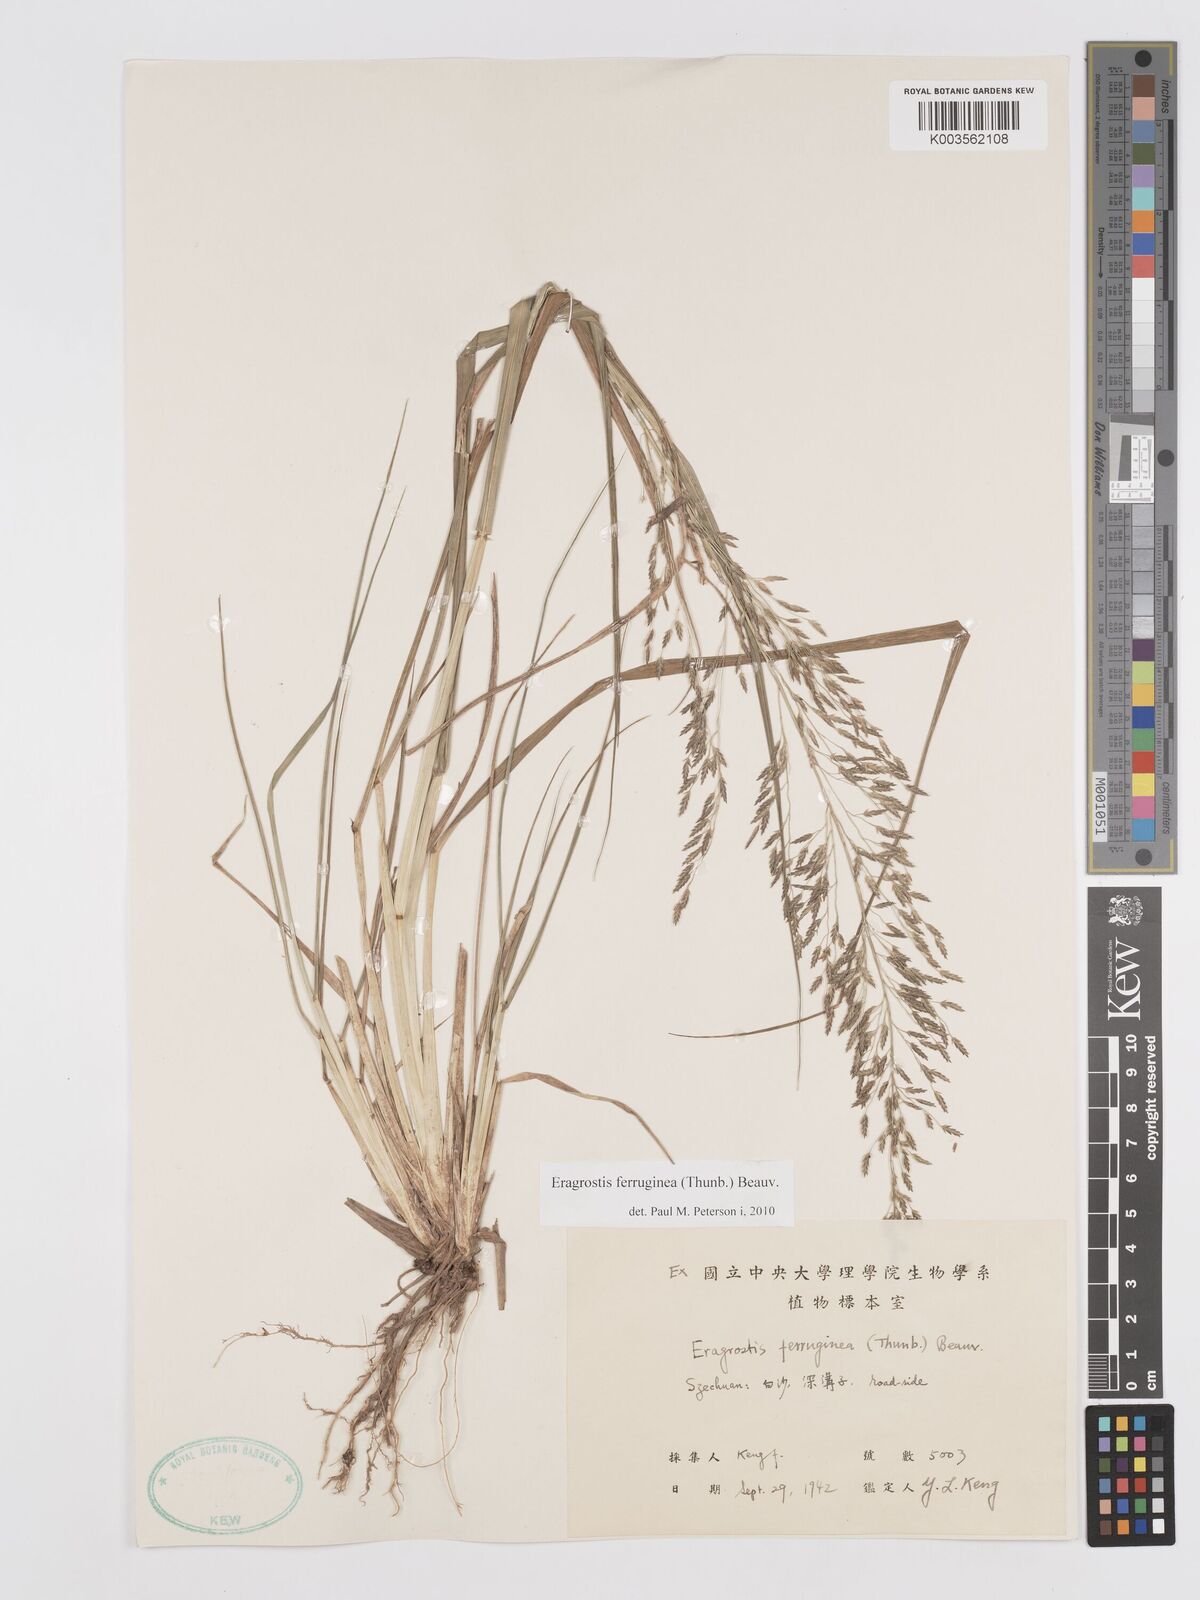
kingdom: Plantae
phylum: Tracheophyta
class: Liliopsida
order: Poales
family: Poaceae
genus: Eragrostis
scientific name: Eragrostis ferruginea
